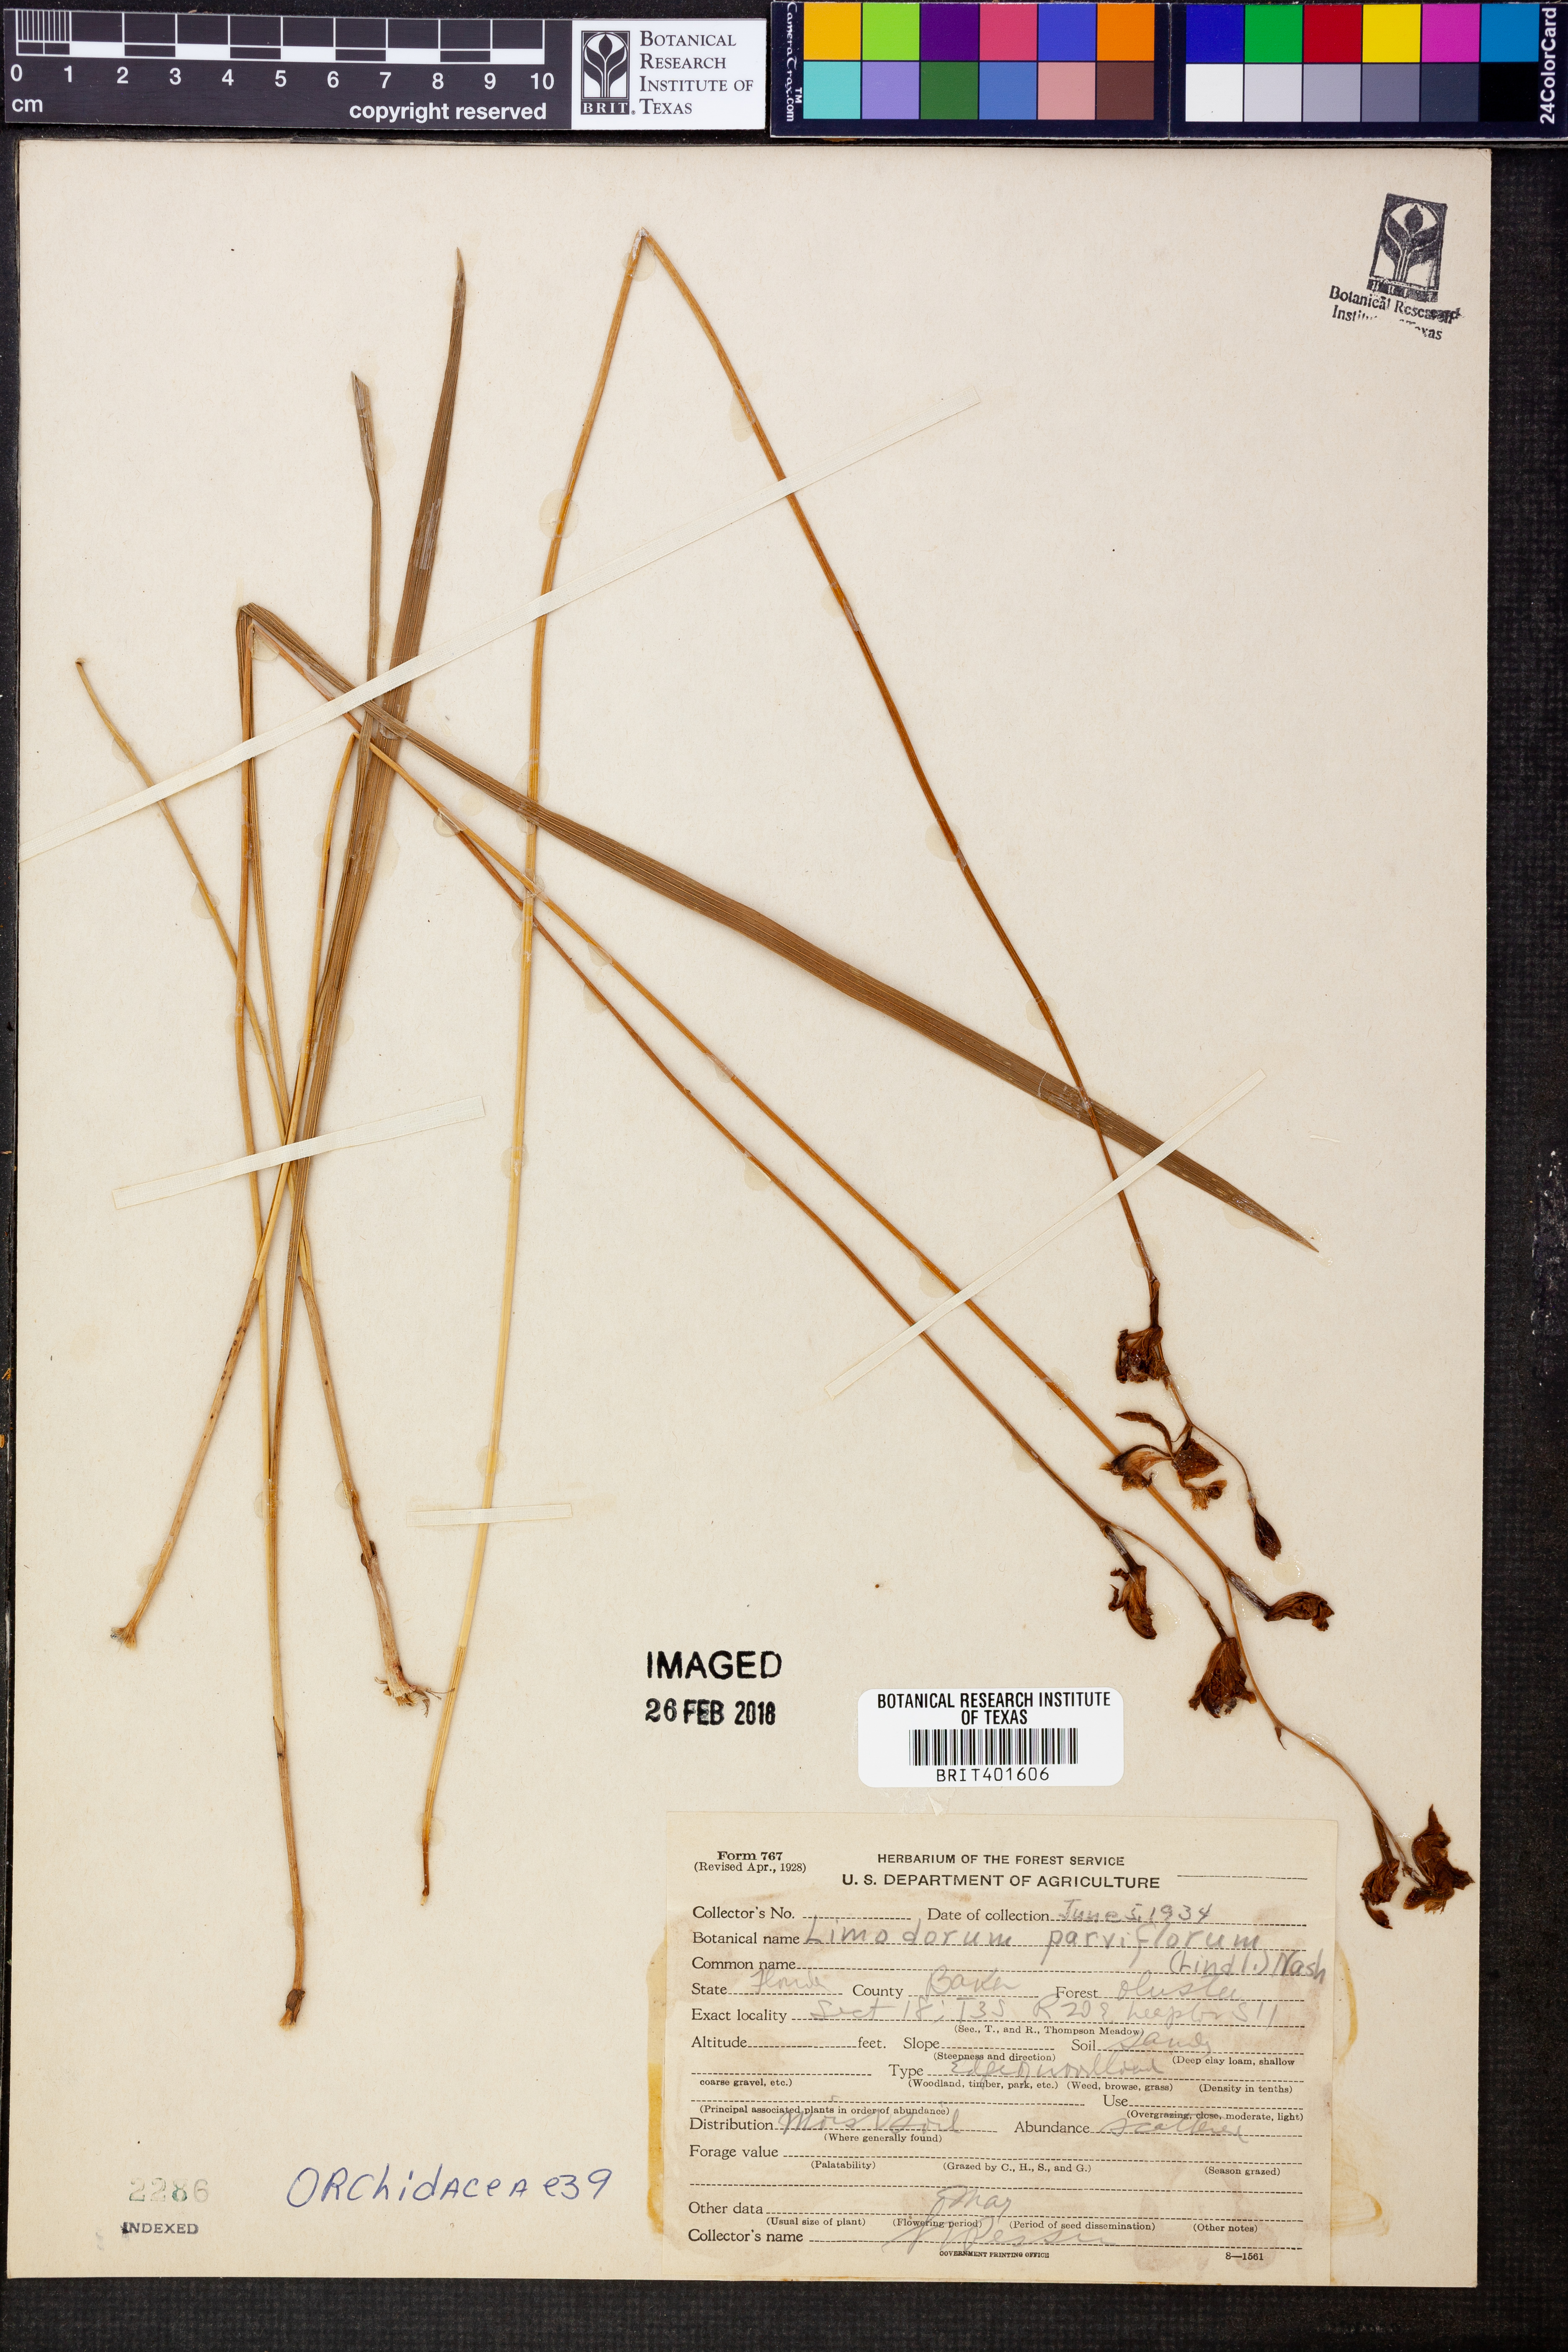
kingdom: Plantae
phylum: Tracheophyta
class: Liliopsida
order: Asparagales
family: Orchidaceae
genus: Calopogon
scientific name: Calopogon barbatus
